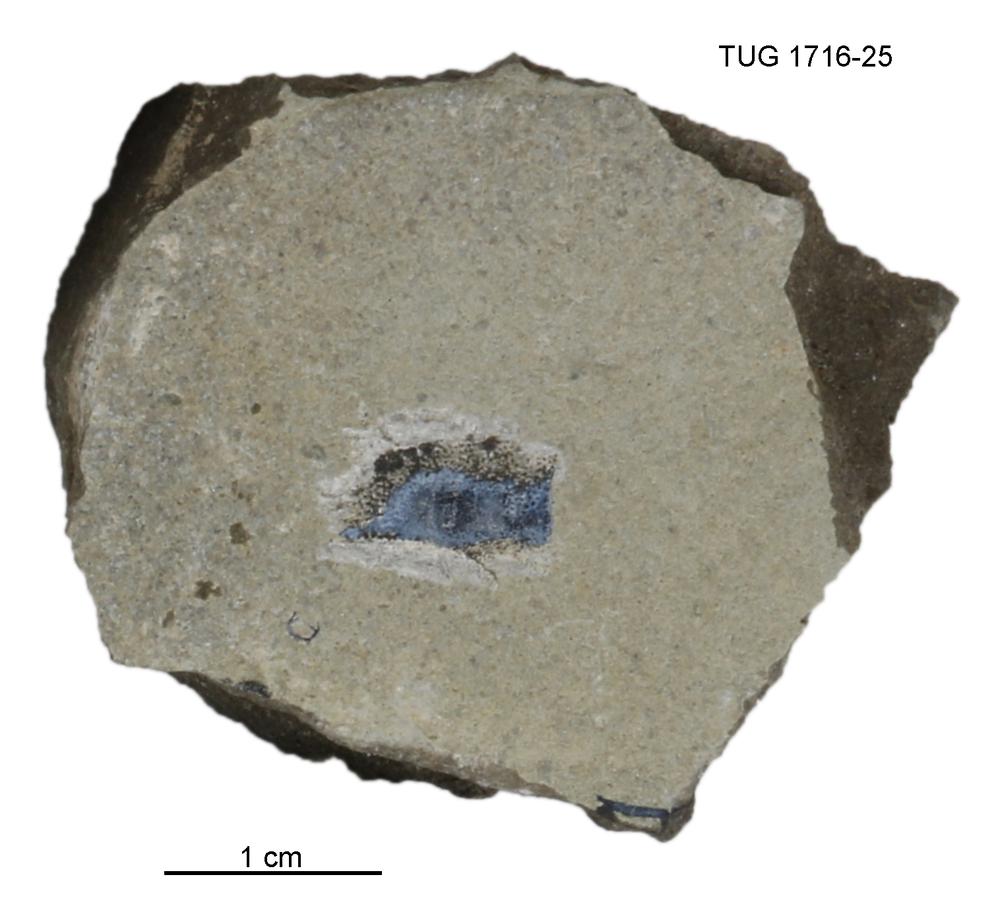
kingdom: Animalia
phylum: Chordata
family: Coccosteidae
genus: Millerosteus
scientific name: Millerosteus minor
